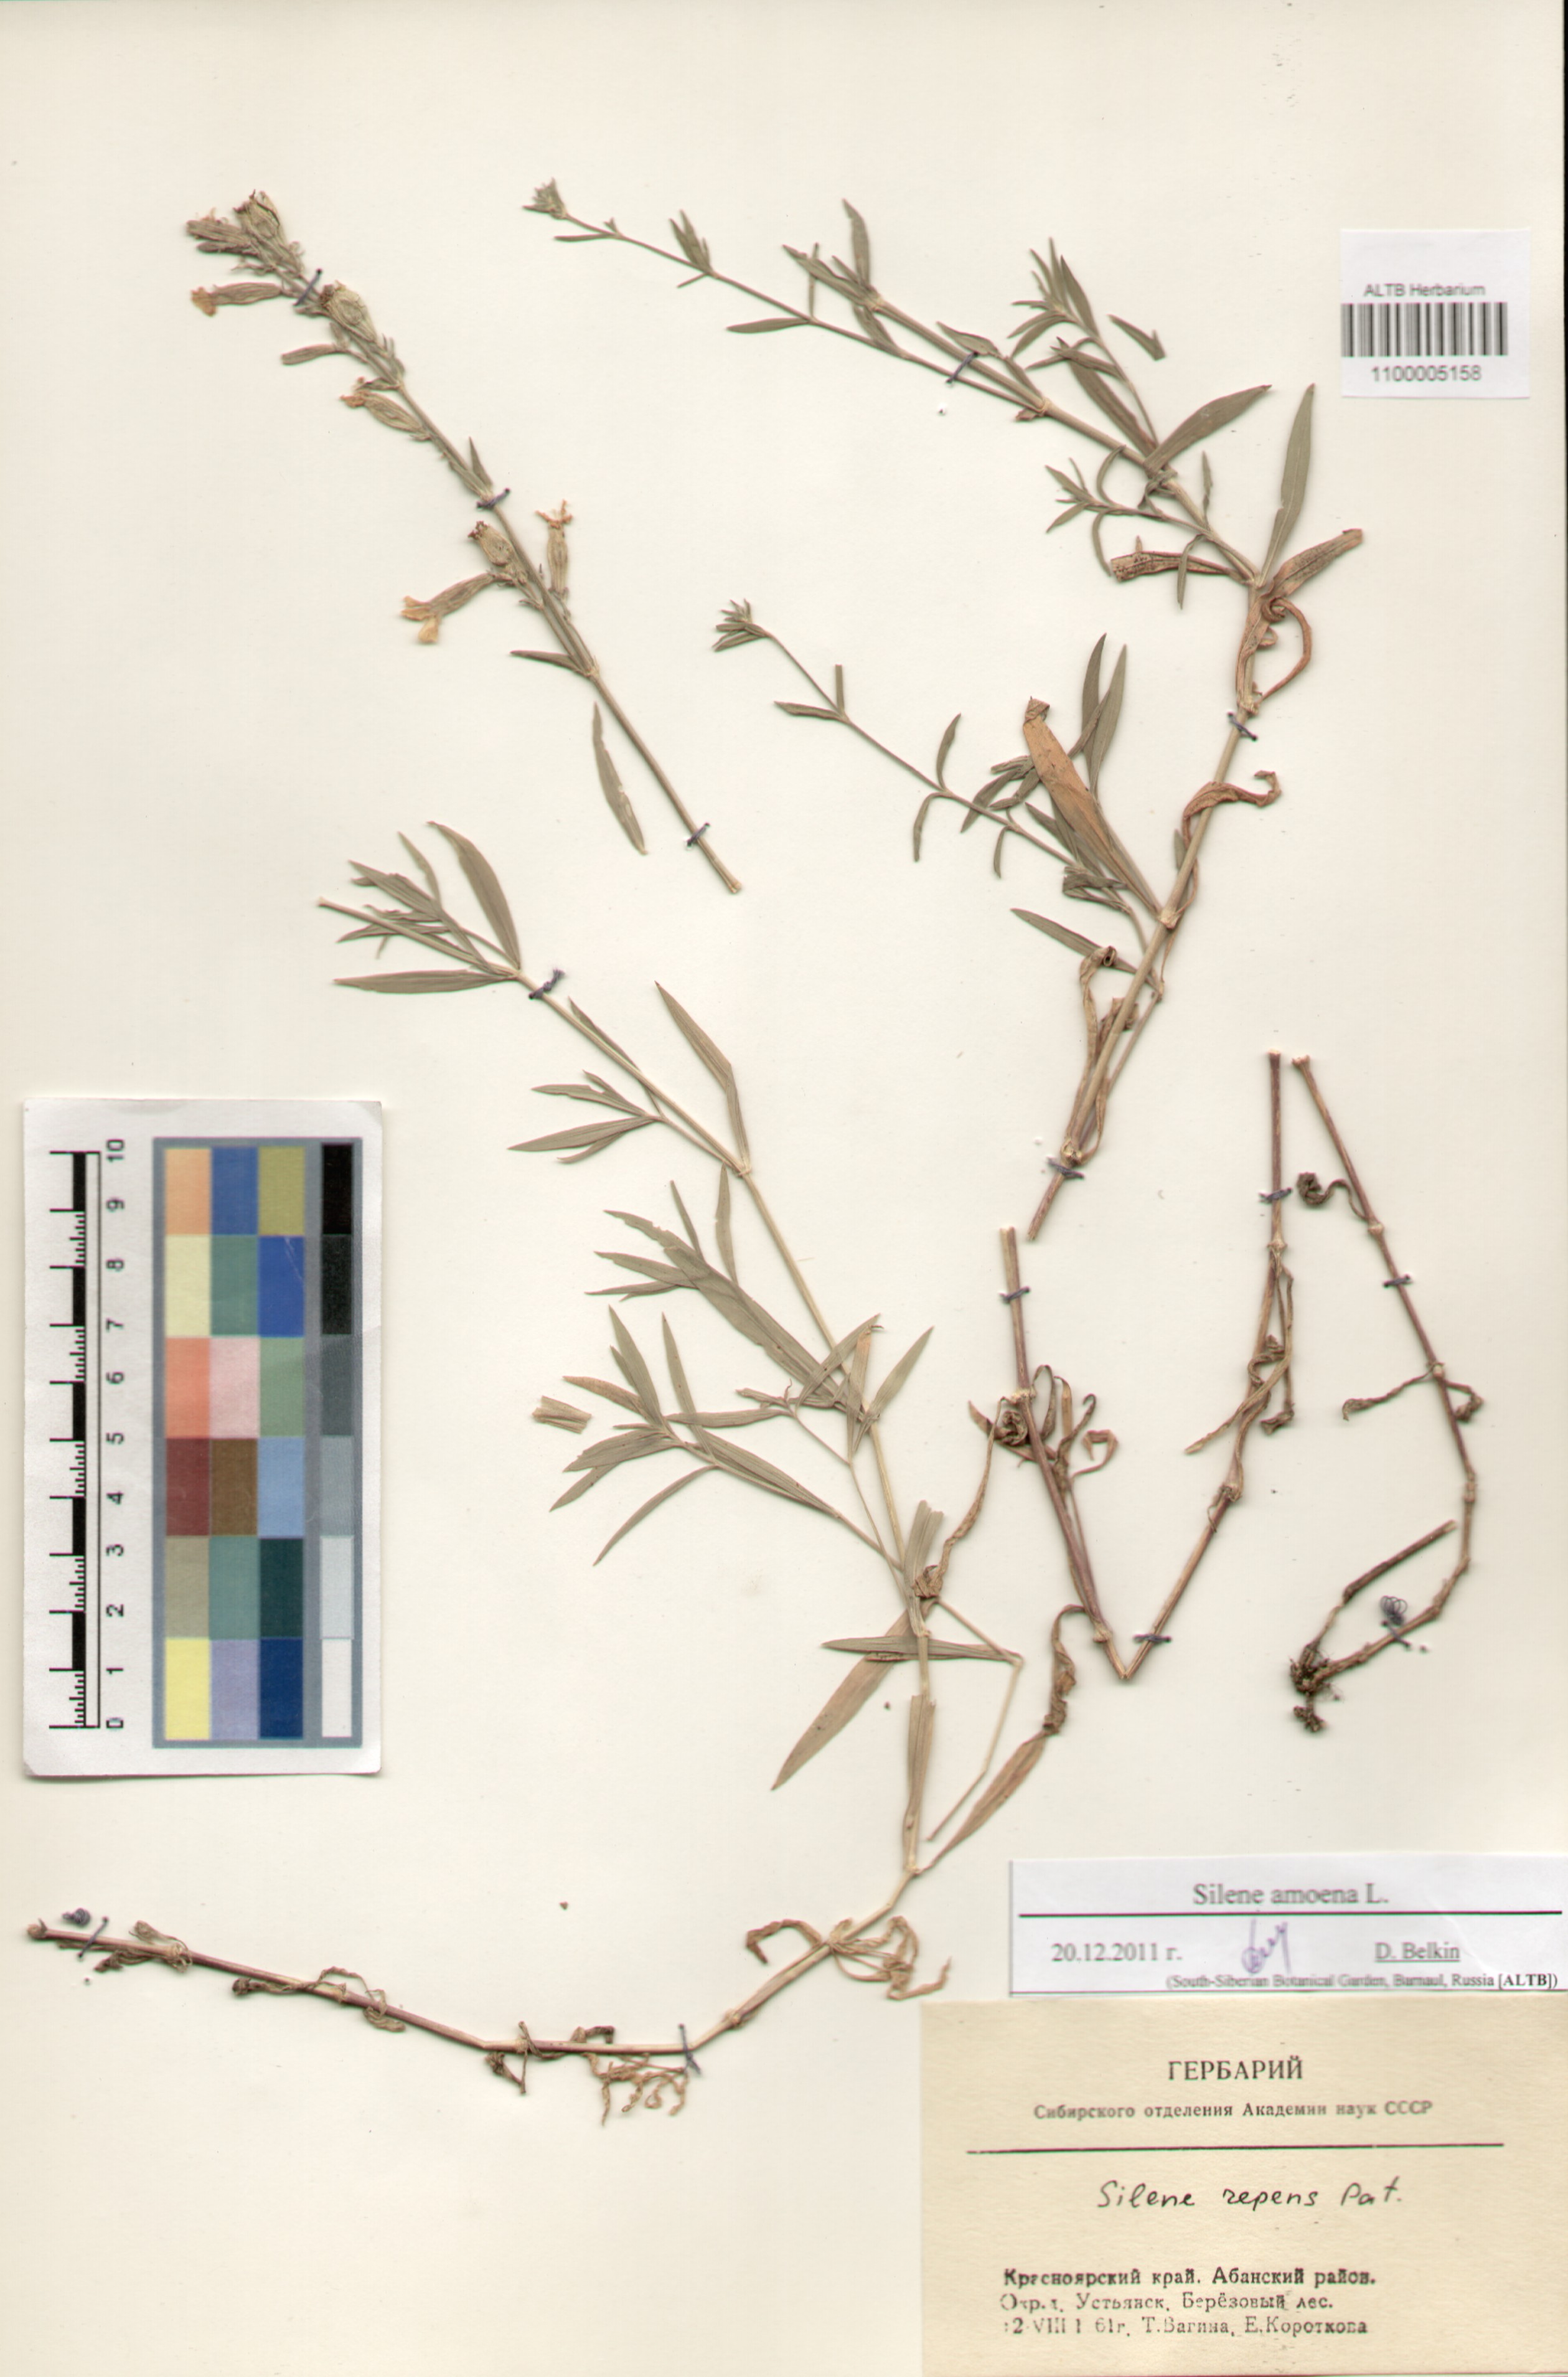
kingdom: Plantae
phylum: Tracheophyta
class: Magnoliopsida
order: Caryophyllales
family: Caryophyllaceae
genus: Silene
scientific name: Silene amoena
